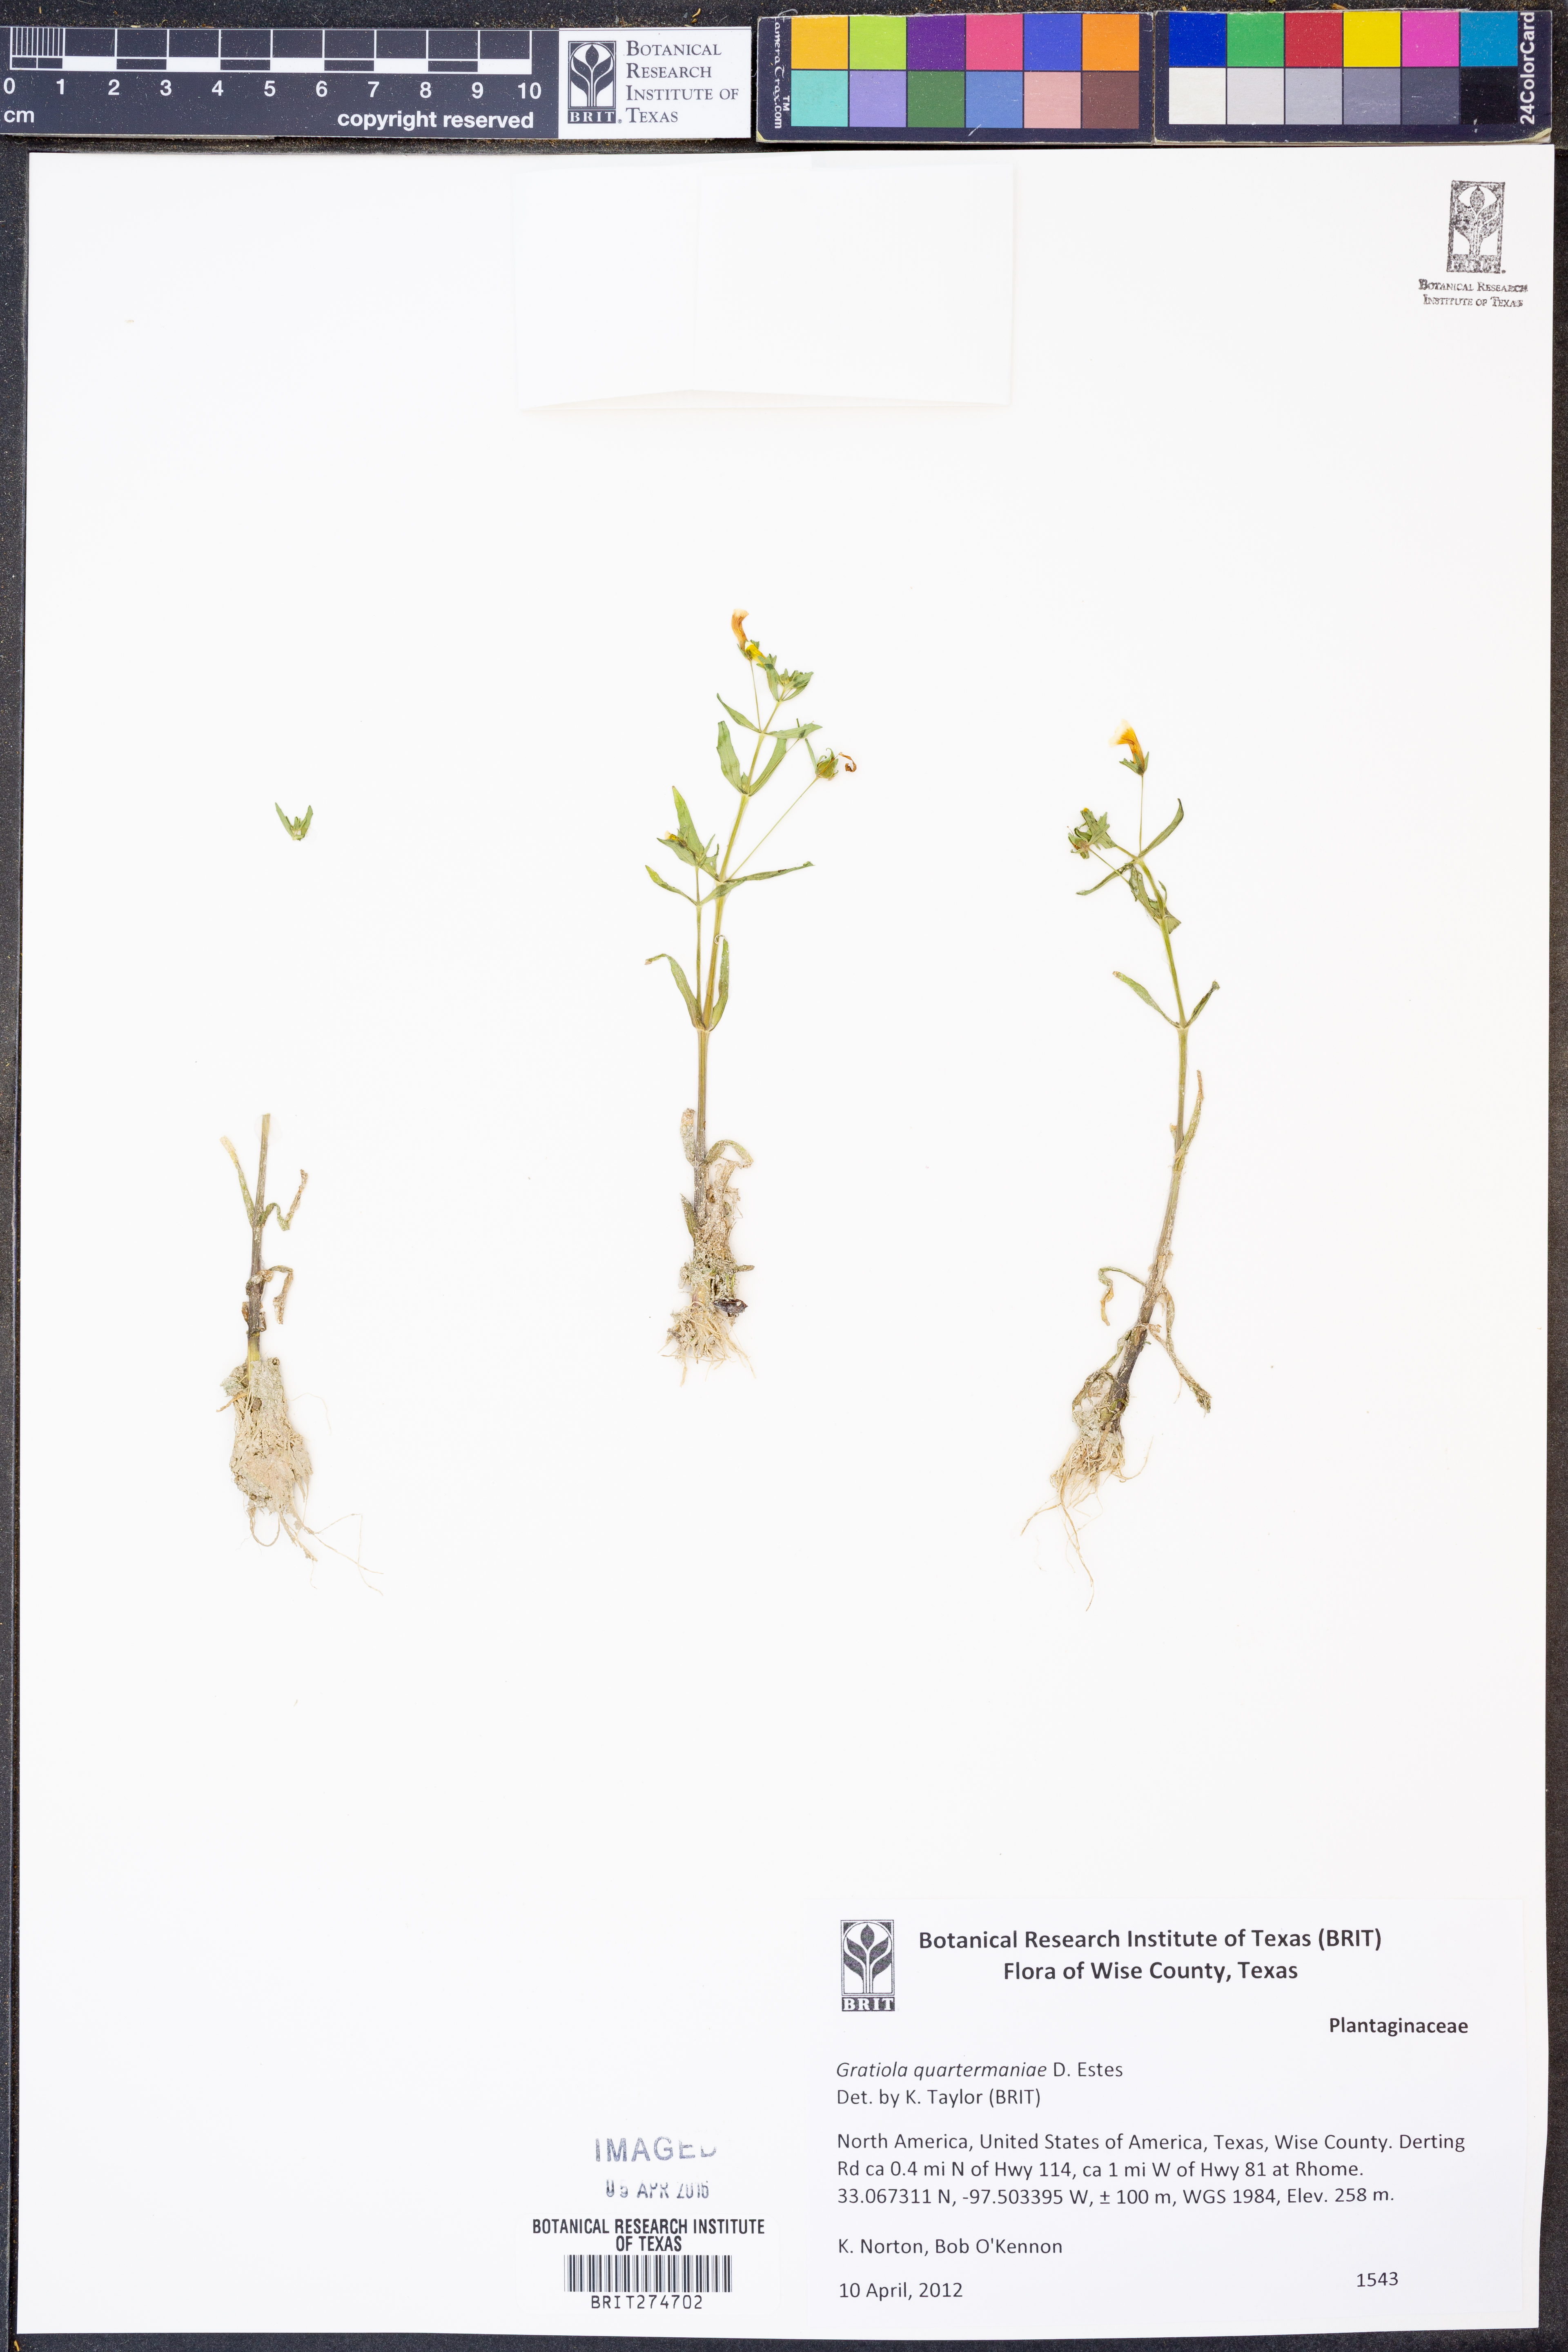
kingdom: Plantae
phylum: Tracheophyta
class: Magnoliopsida
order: Lamiales
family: Plantaginaceae
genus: Gratiola
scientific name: Gratiola quartermaniae
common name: Quarterman's hedge-hyssop
